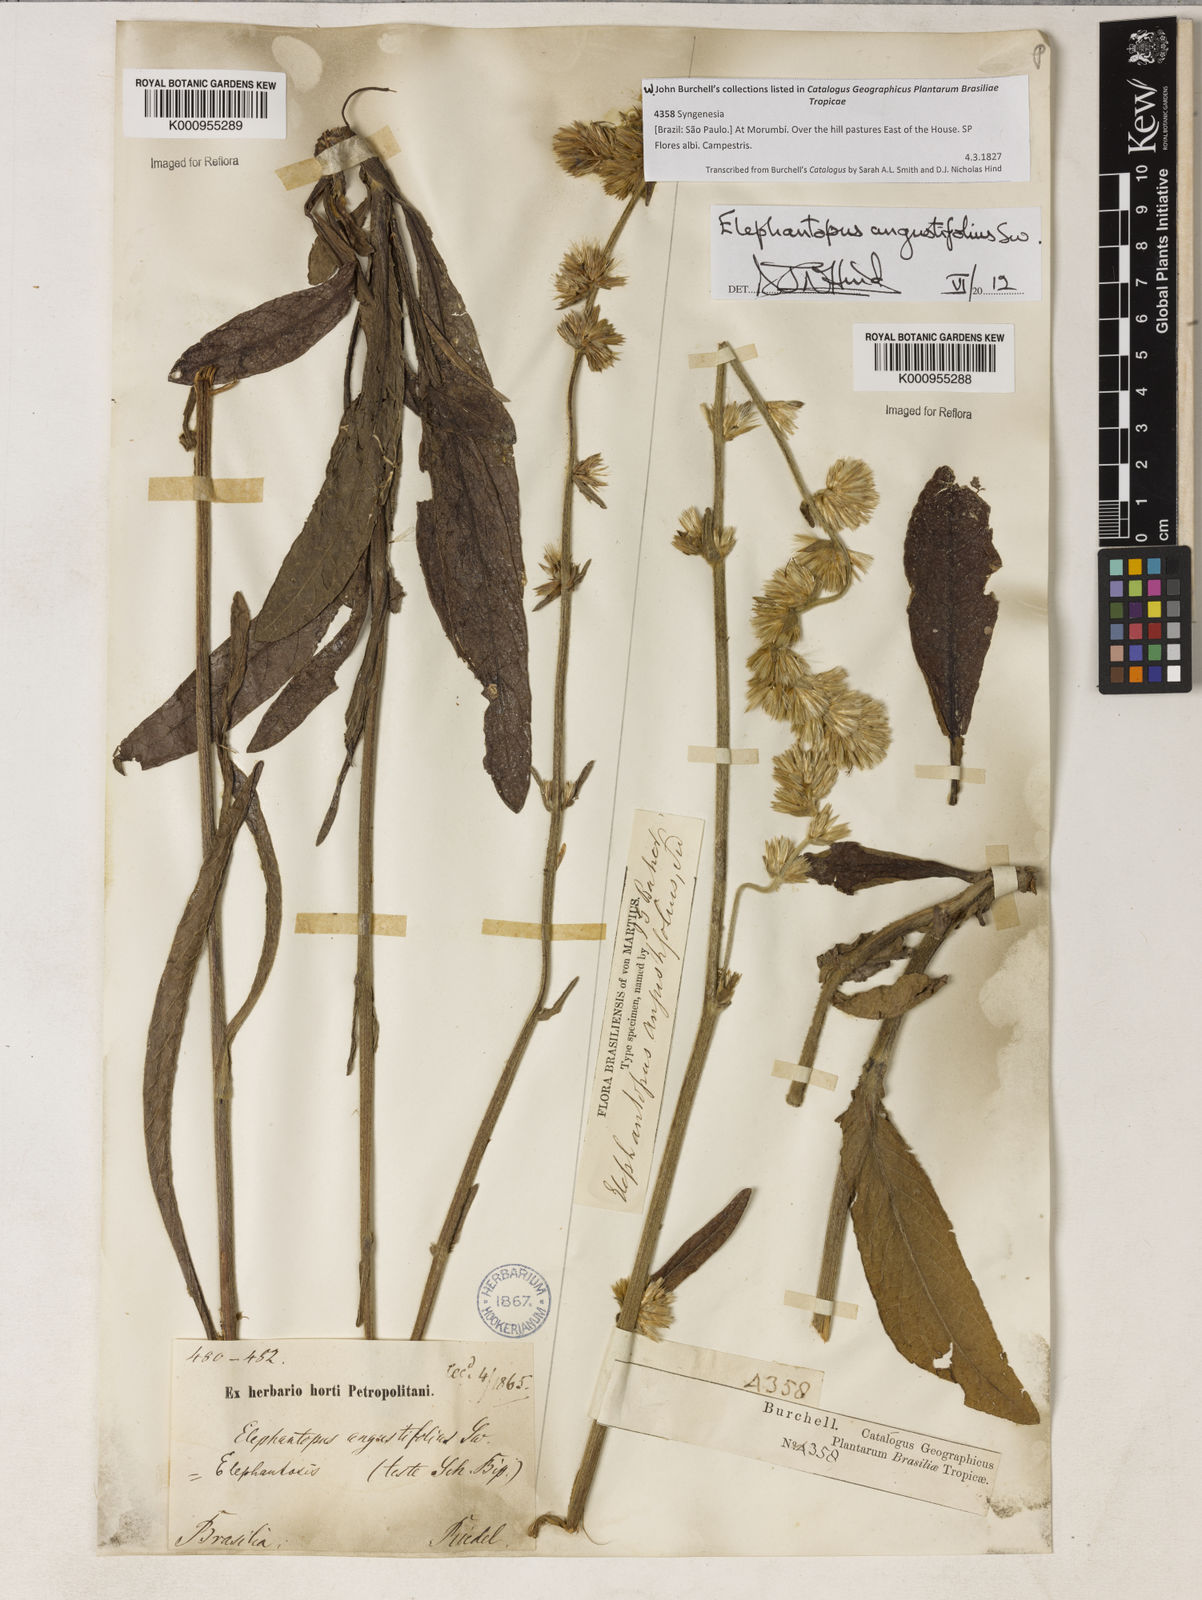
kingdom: Plantae
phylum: Tracheophyta
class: Magnoliopsida
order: Asterales
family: Asteraceae
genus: Orthopappus
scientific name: Orthopappus angustifolius
